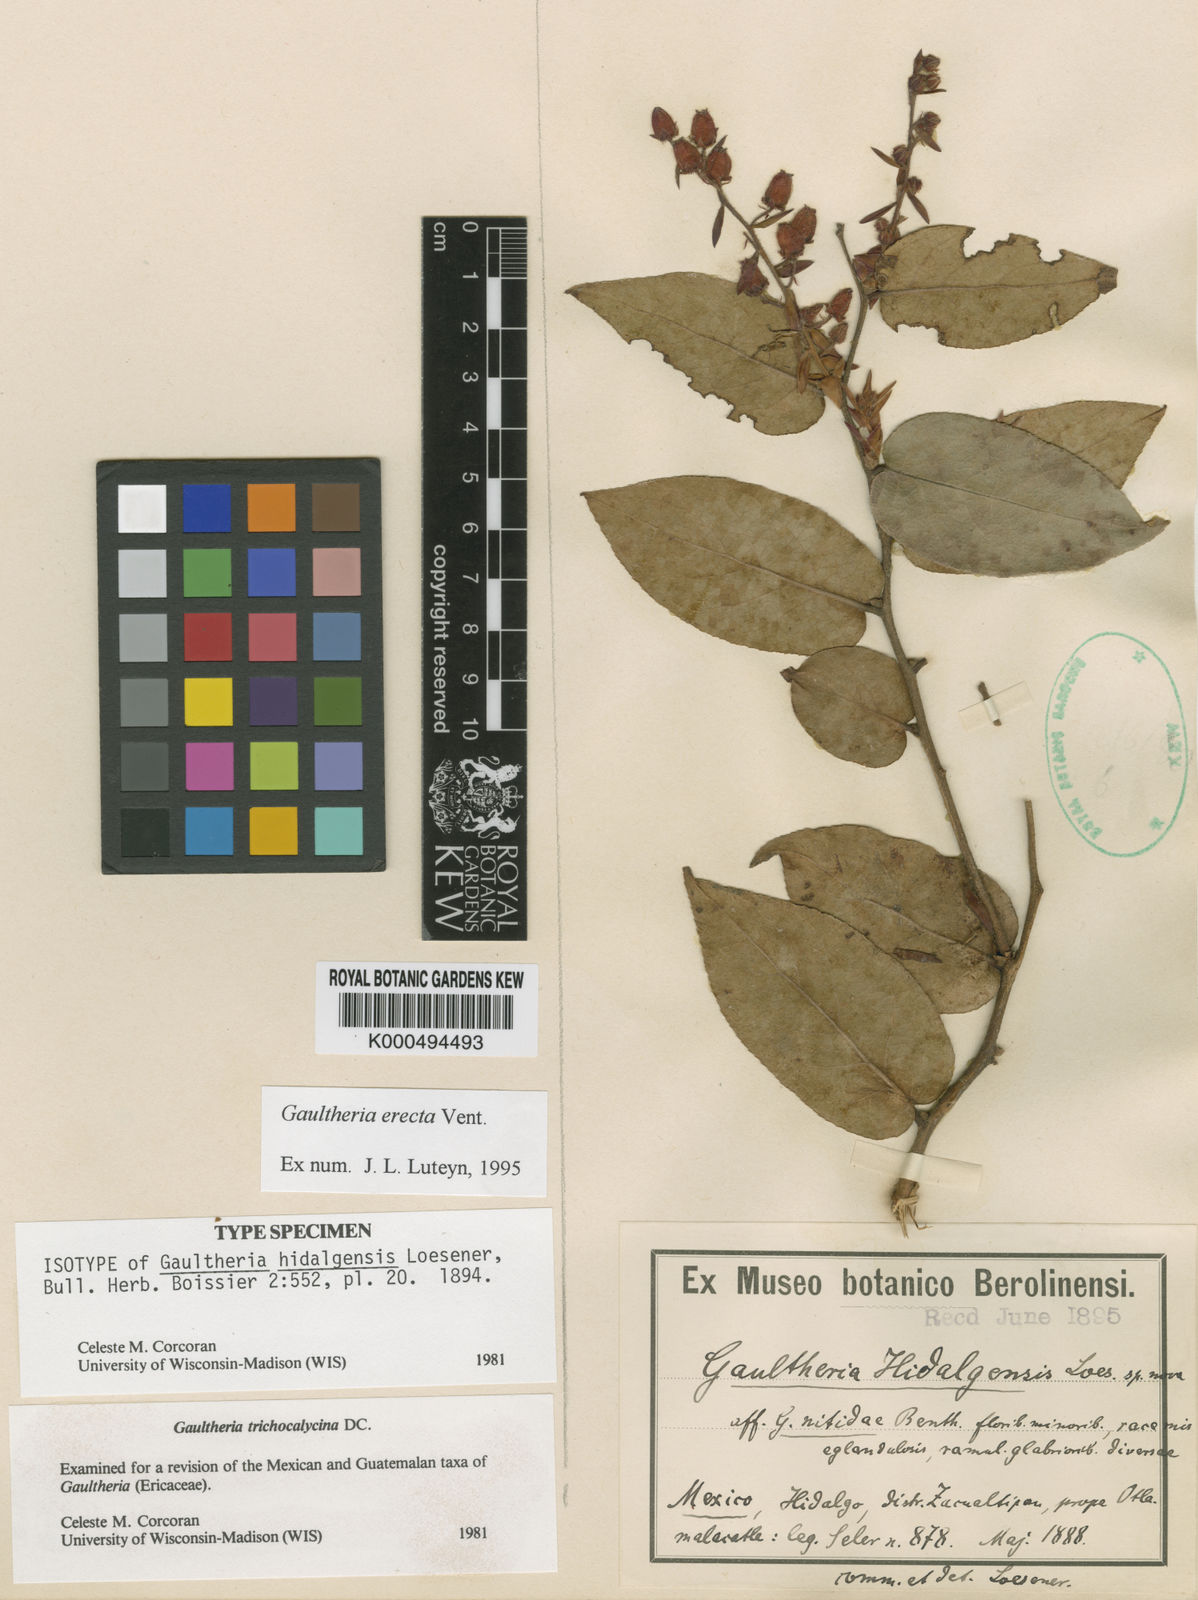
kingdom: Plantae
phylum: Tracheophyta
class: Magnoliopsida
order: Ericales
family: Ericaceae
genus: Gaultheria
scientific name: Gaultheria erecta
